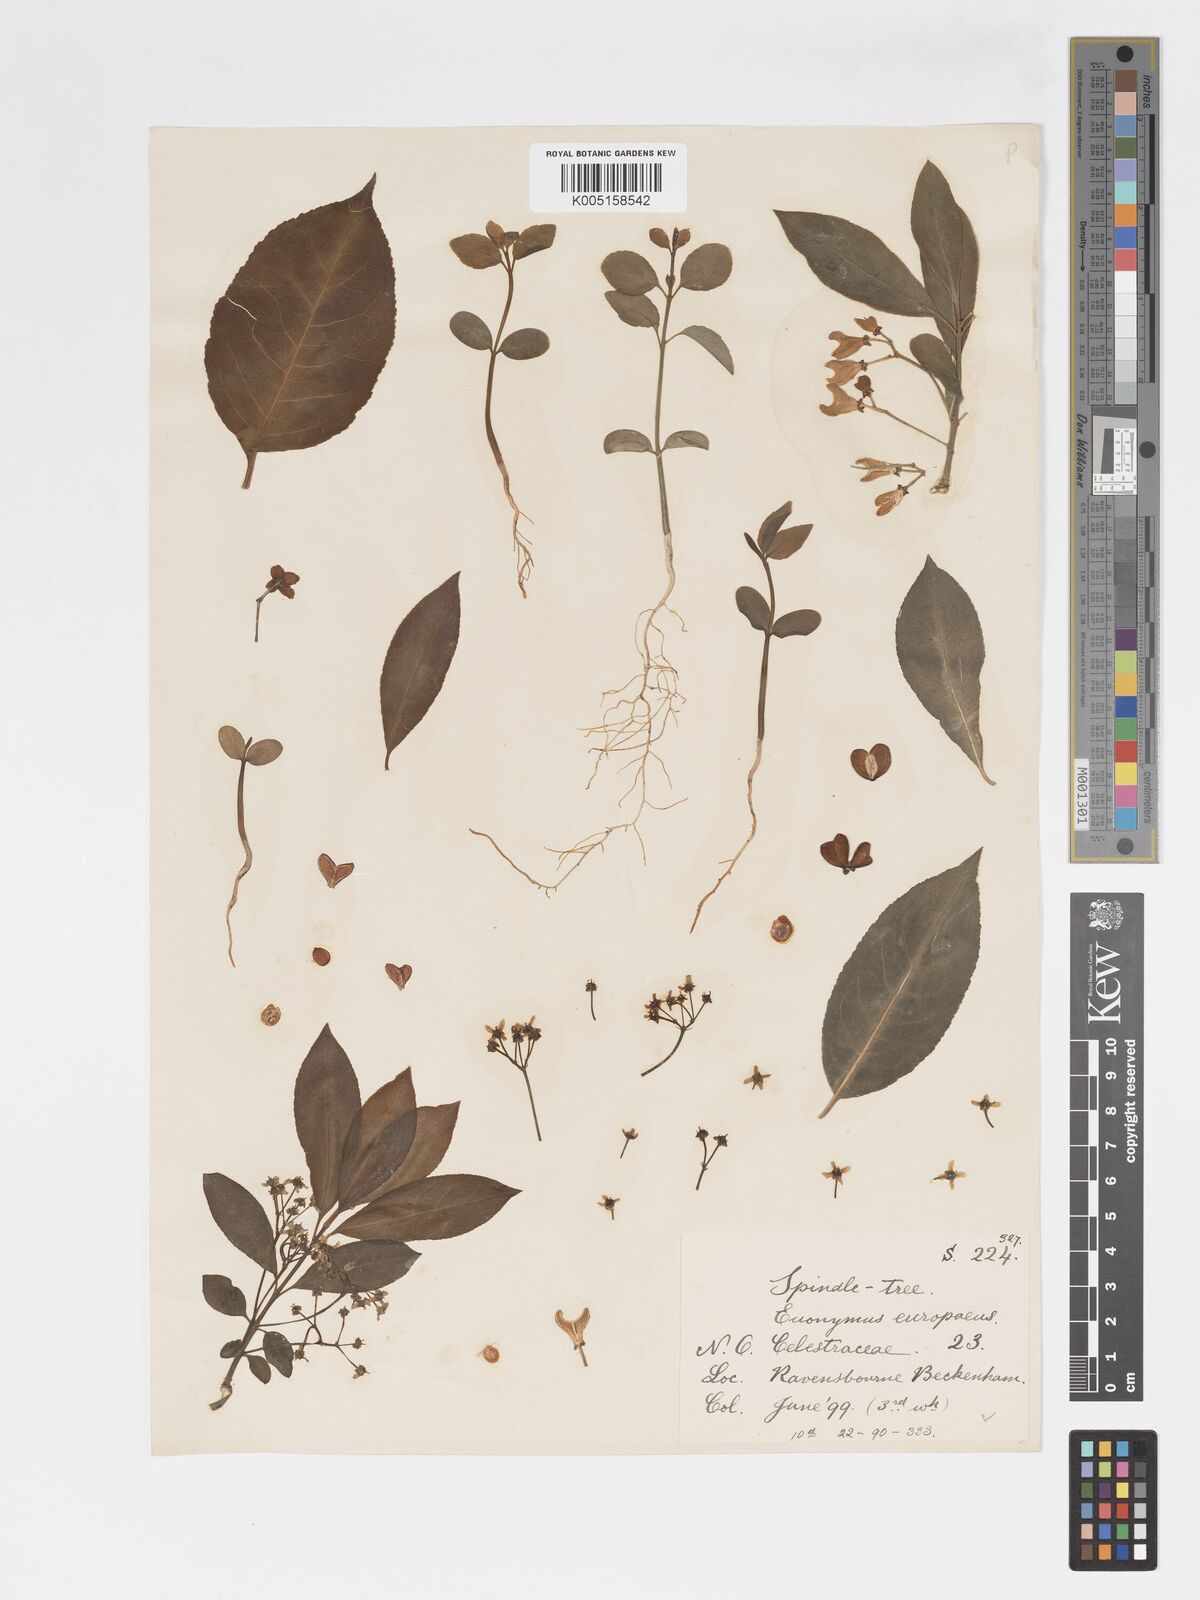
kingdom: Plantae
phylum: Tracheophyta
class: Magnoliopsida
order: Celastrales
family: Celastraceae
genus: Euonymus
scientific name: Euonymus
